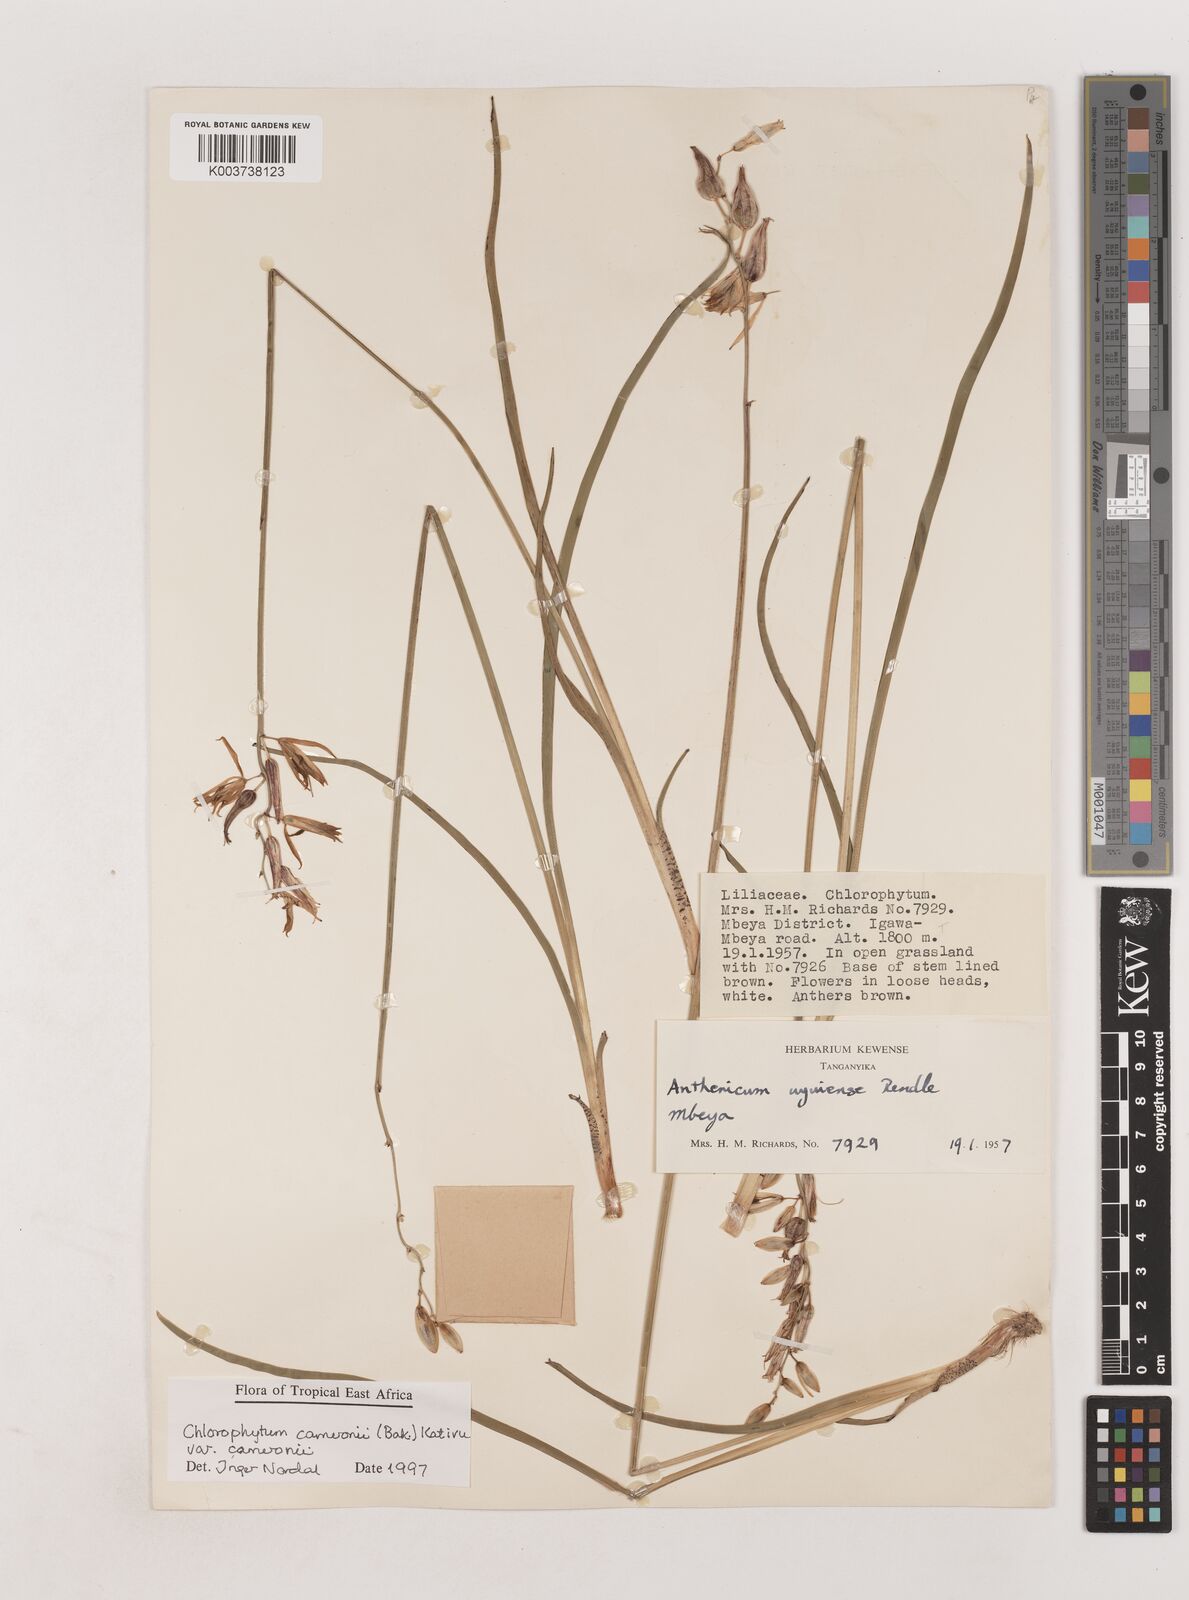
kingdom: Plantae
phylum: Tracheophyta
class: Liliopsida
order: Asparagales
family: Asparagaceae
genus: Chlorophytum
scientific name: Chlorophytum cameronii
